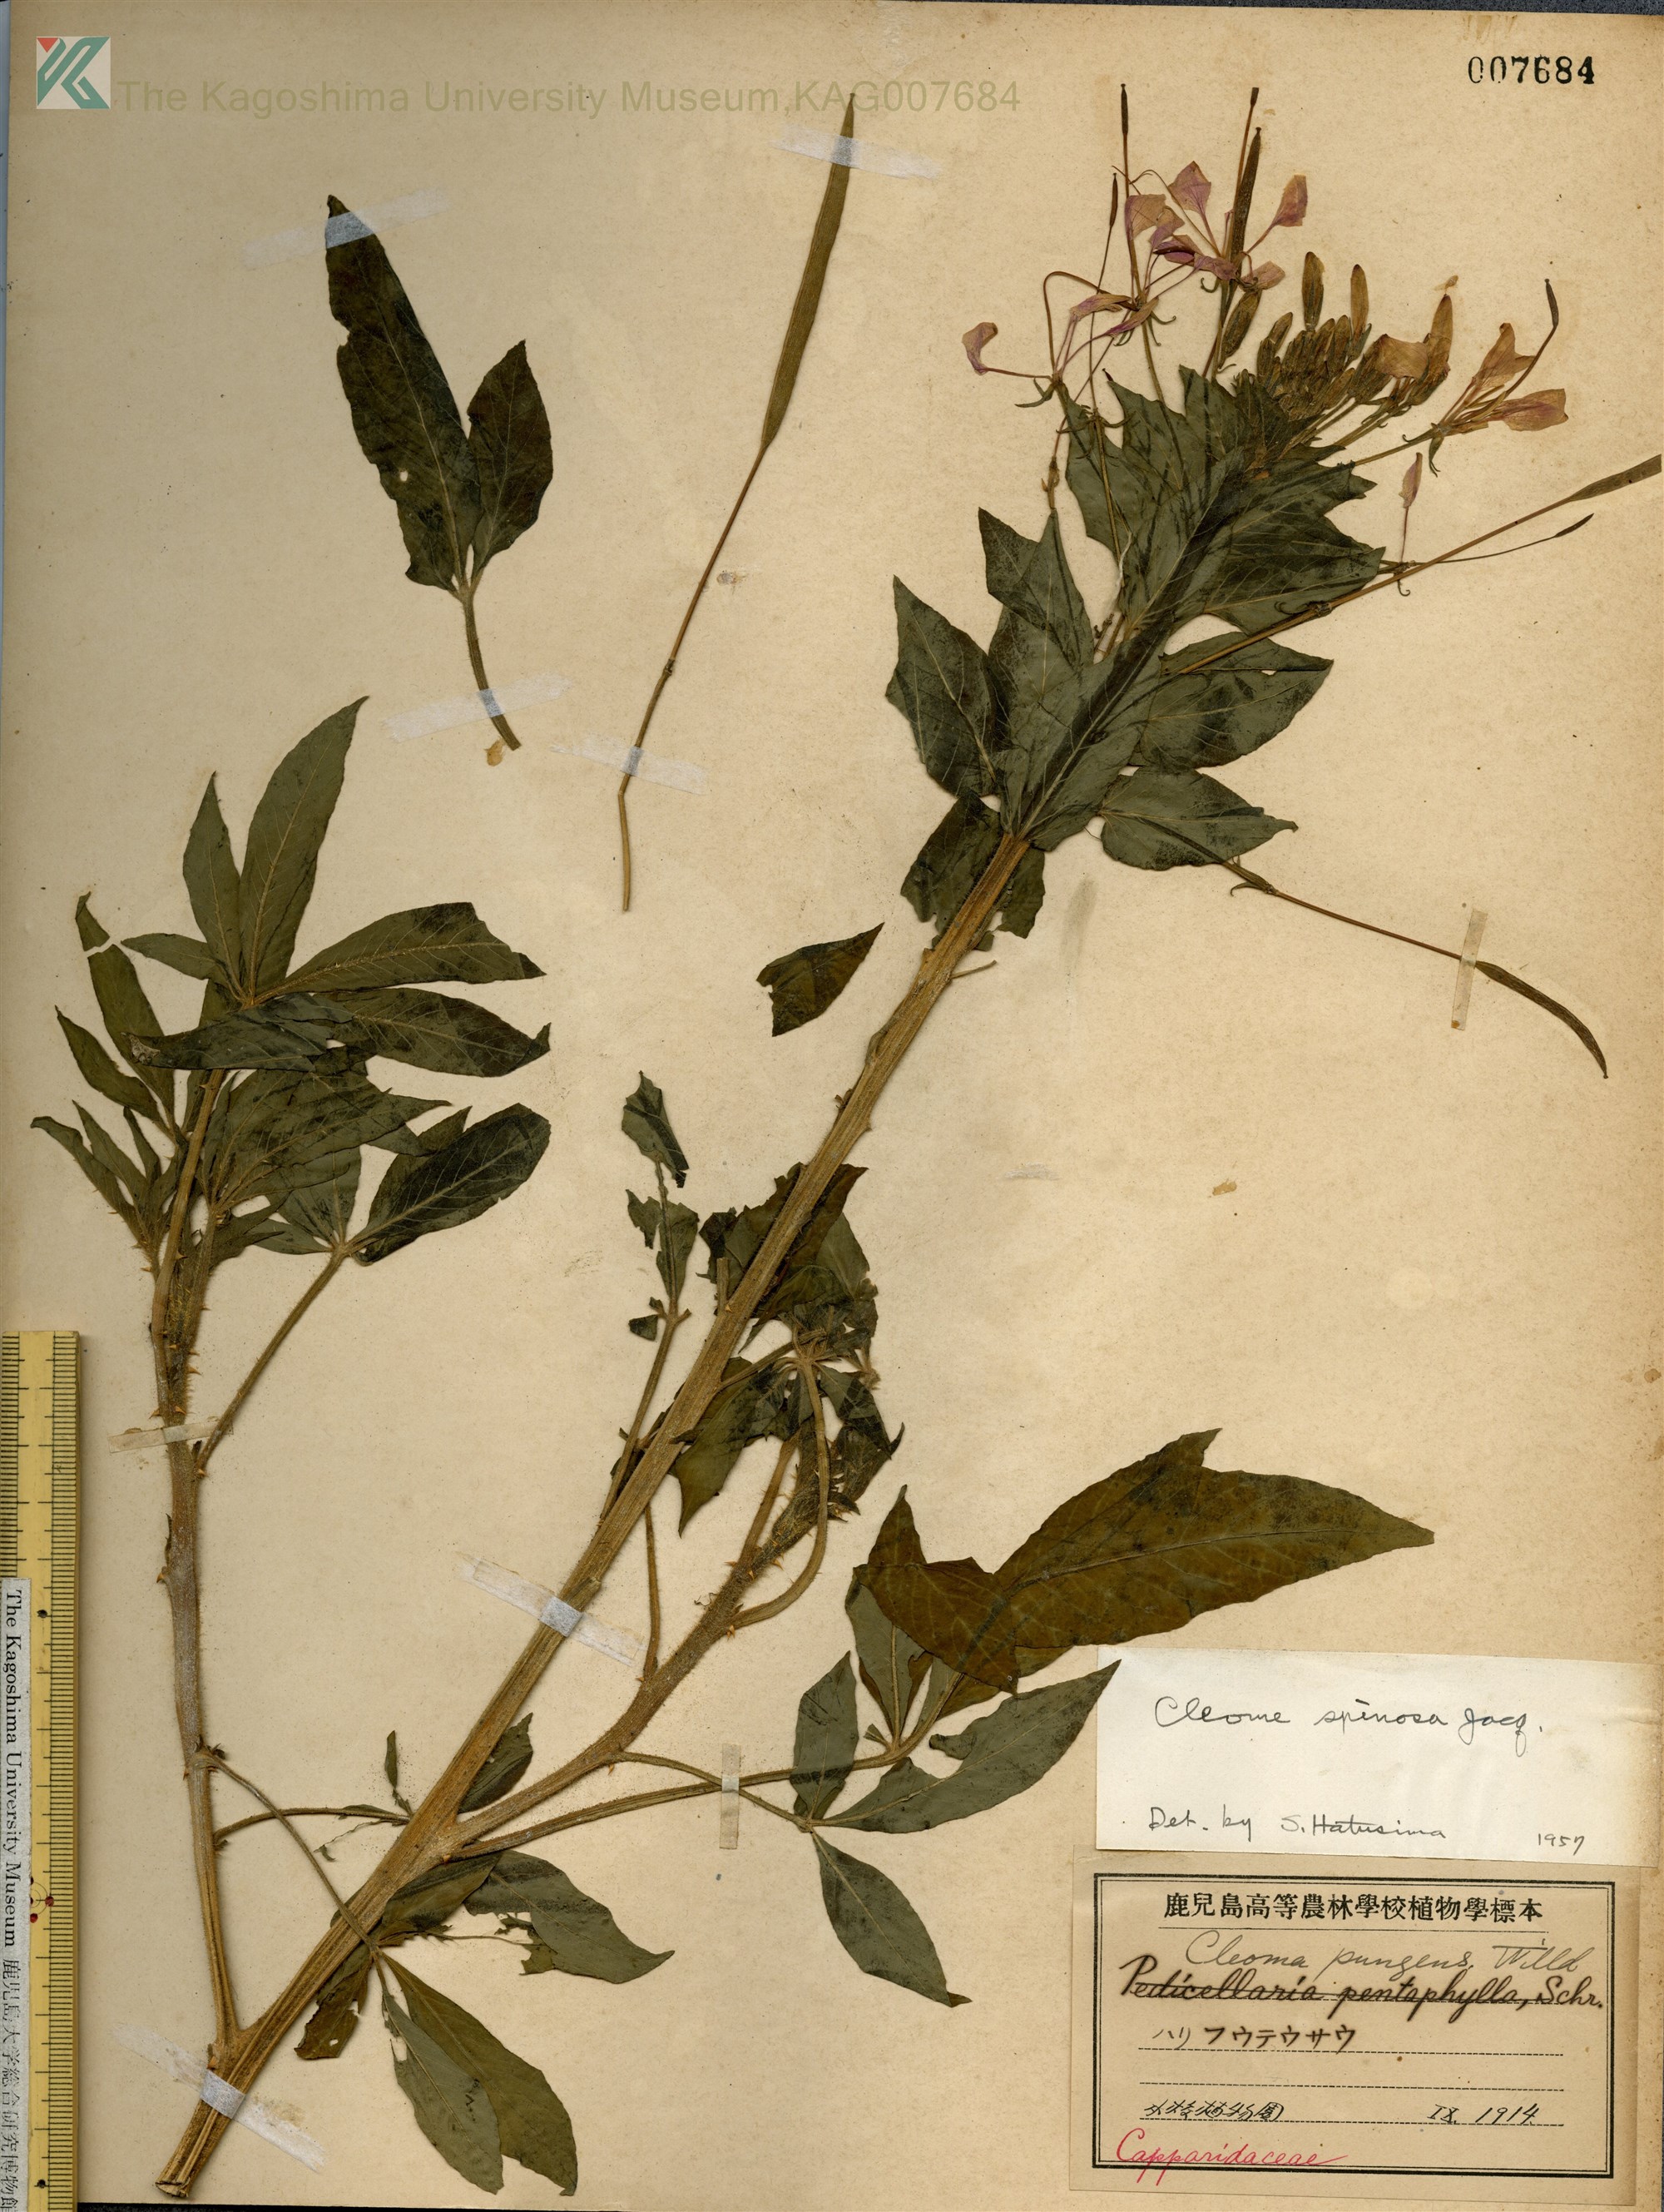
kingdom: Plantae
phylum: Tracheophyta
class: Magnoliopsida
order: Brassicales
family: Cleomaceae
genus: Tarenaya
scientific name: Tarenaya houtteana
